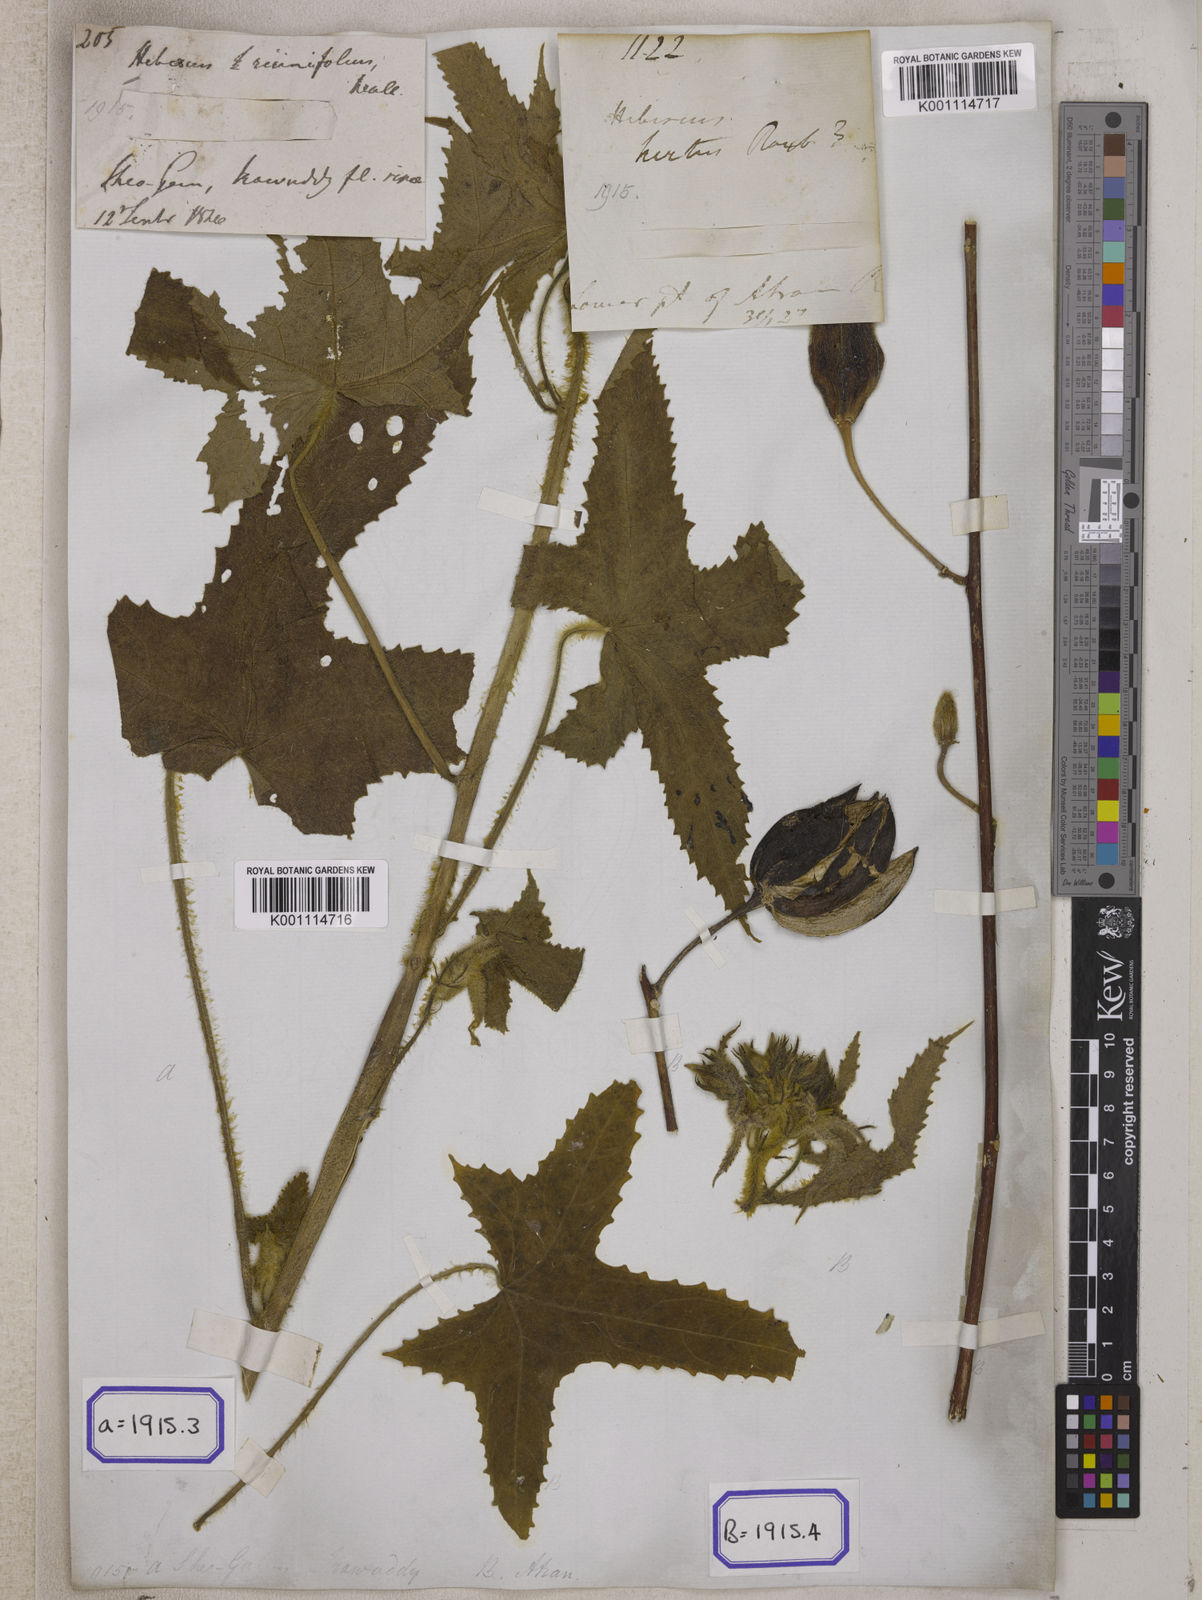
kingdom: Plantae
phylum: Tracheophyta
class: Magnoliopsida
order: Malvales
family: Malvaceae
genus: Bamia
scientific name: Bamia
